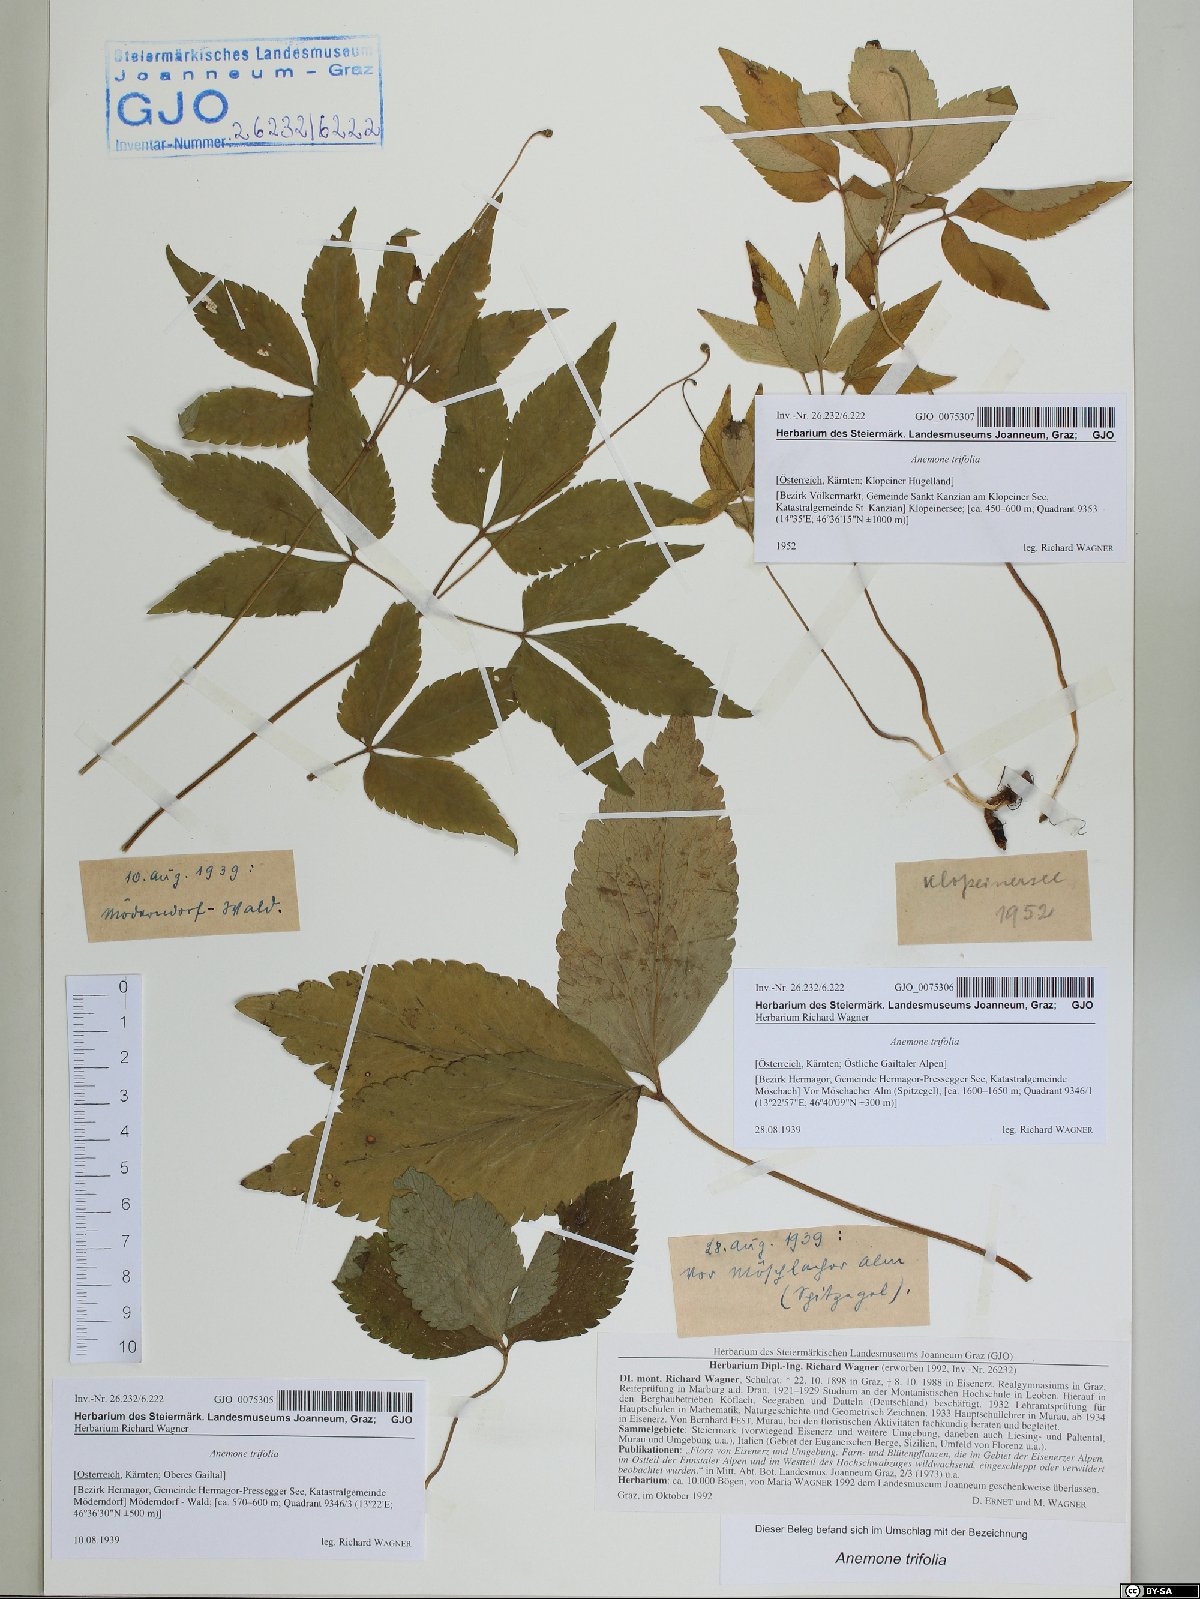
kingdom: Plantae
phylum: Tracheophyta
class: Magnoliopsida
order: Ranunculales
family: Ranunculaceae
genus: Anemone
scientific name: Anemone trifolia
